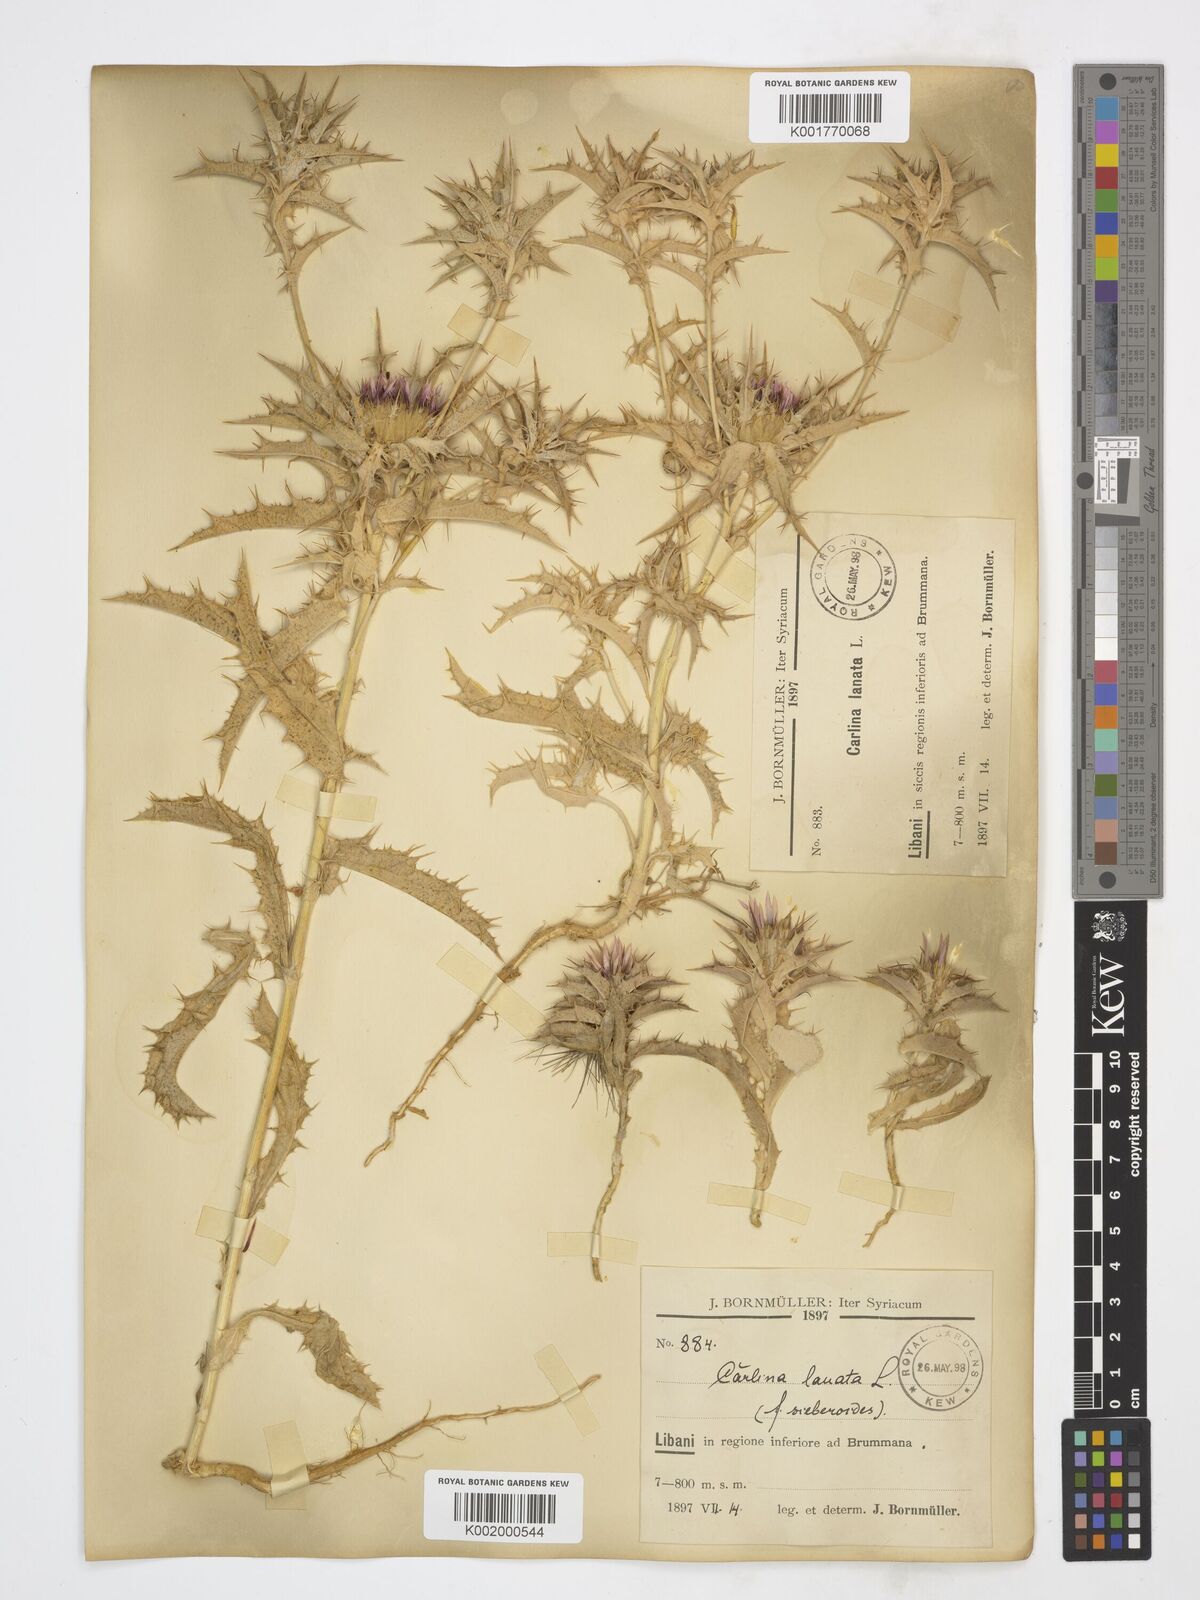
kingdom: Plantae
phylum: Tracheophyta
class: Magnoliopsida
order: Asterales
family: Asteraceae
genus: Carlina
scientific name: Carlina lanata
